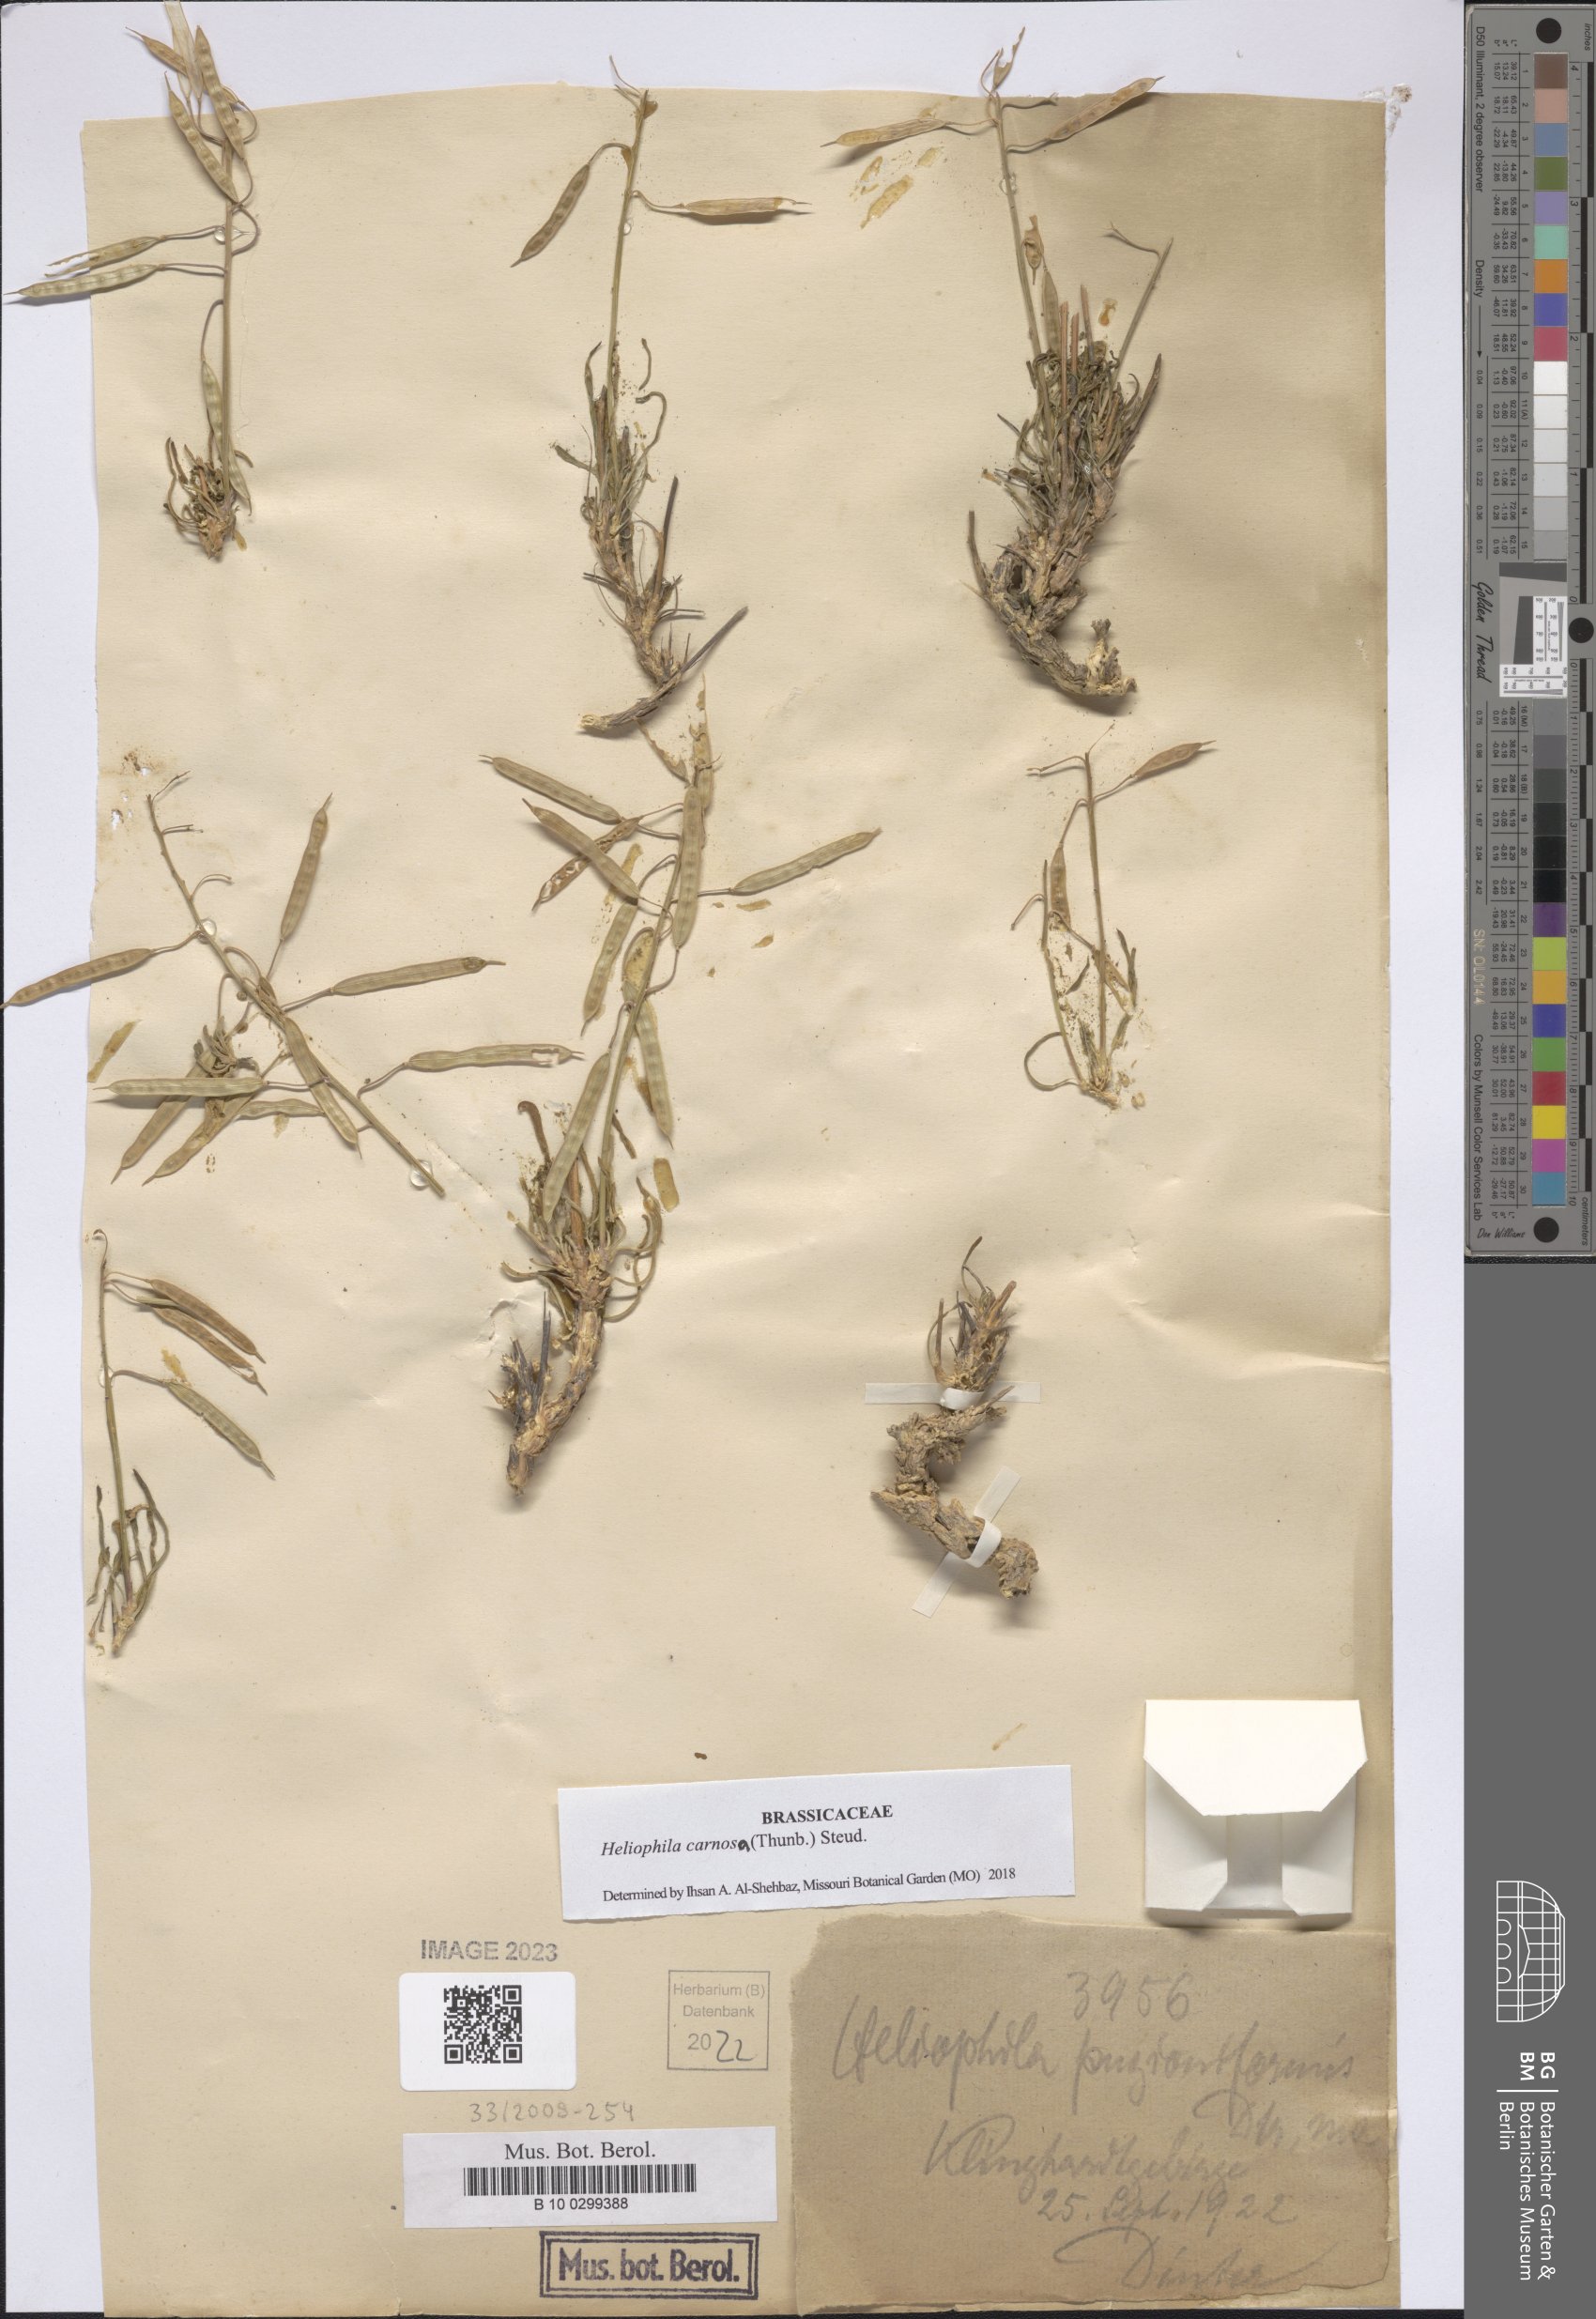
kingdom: Plantae
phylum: Tracheophyta
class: Magnoliopsida
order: Brassicales
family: Brassicaceae
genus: Heliophila
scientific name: Heliophila carnosa
